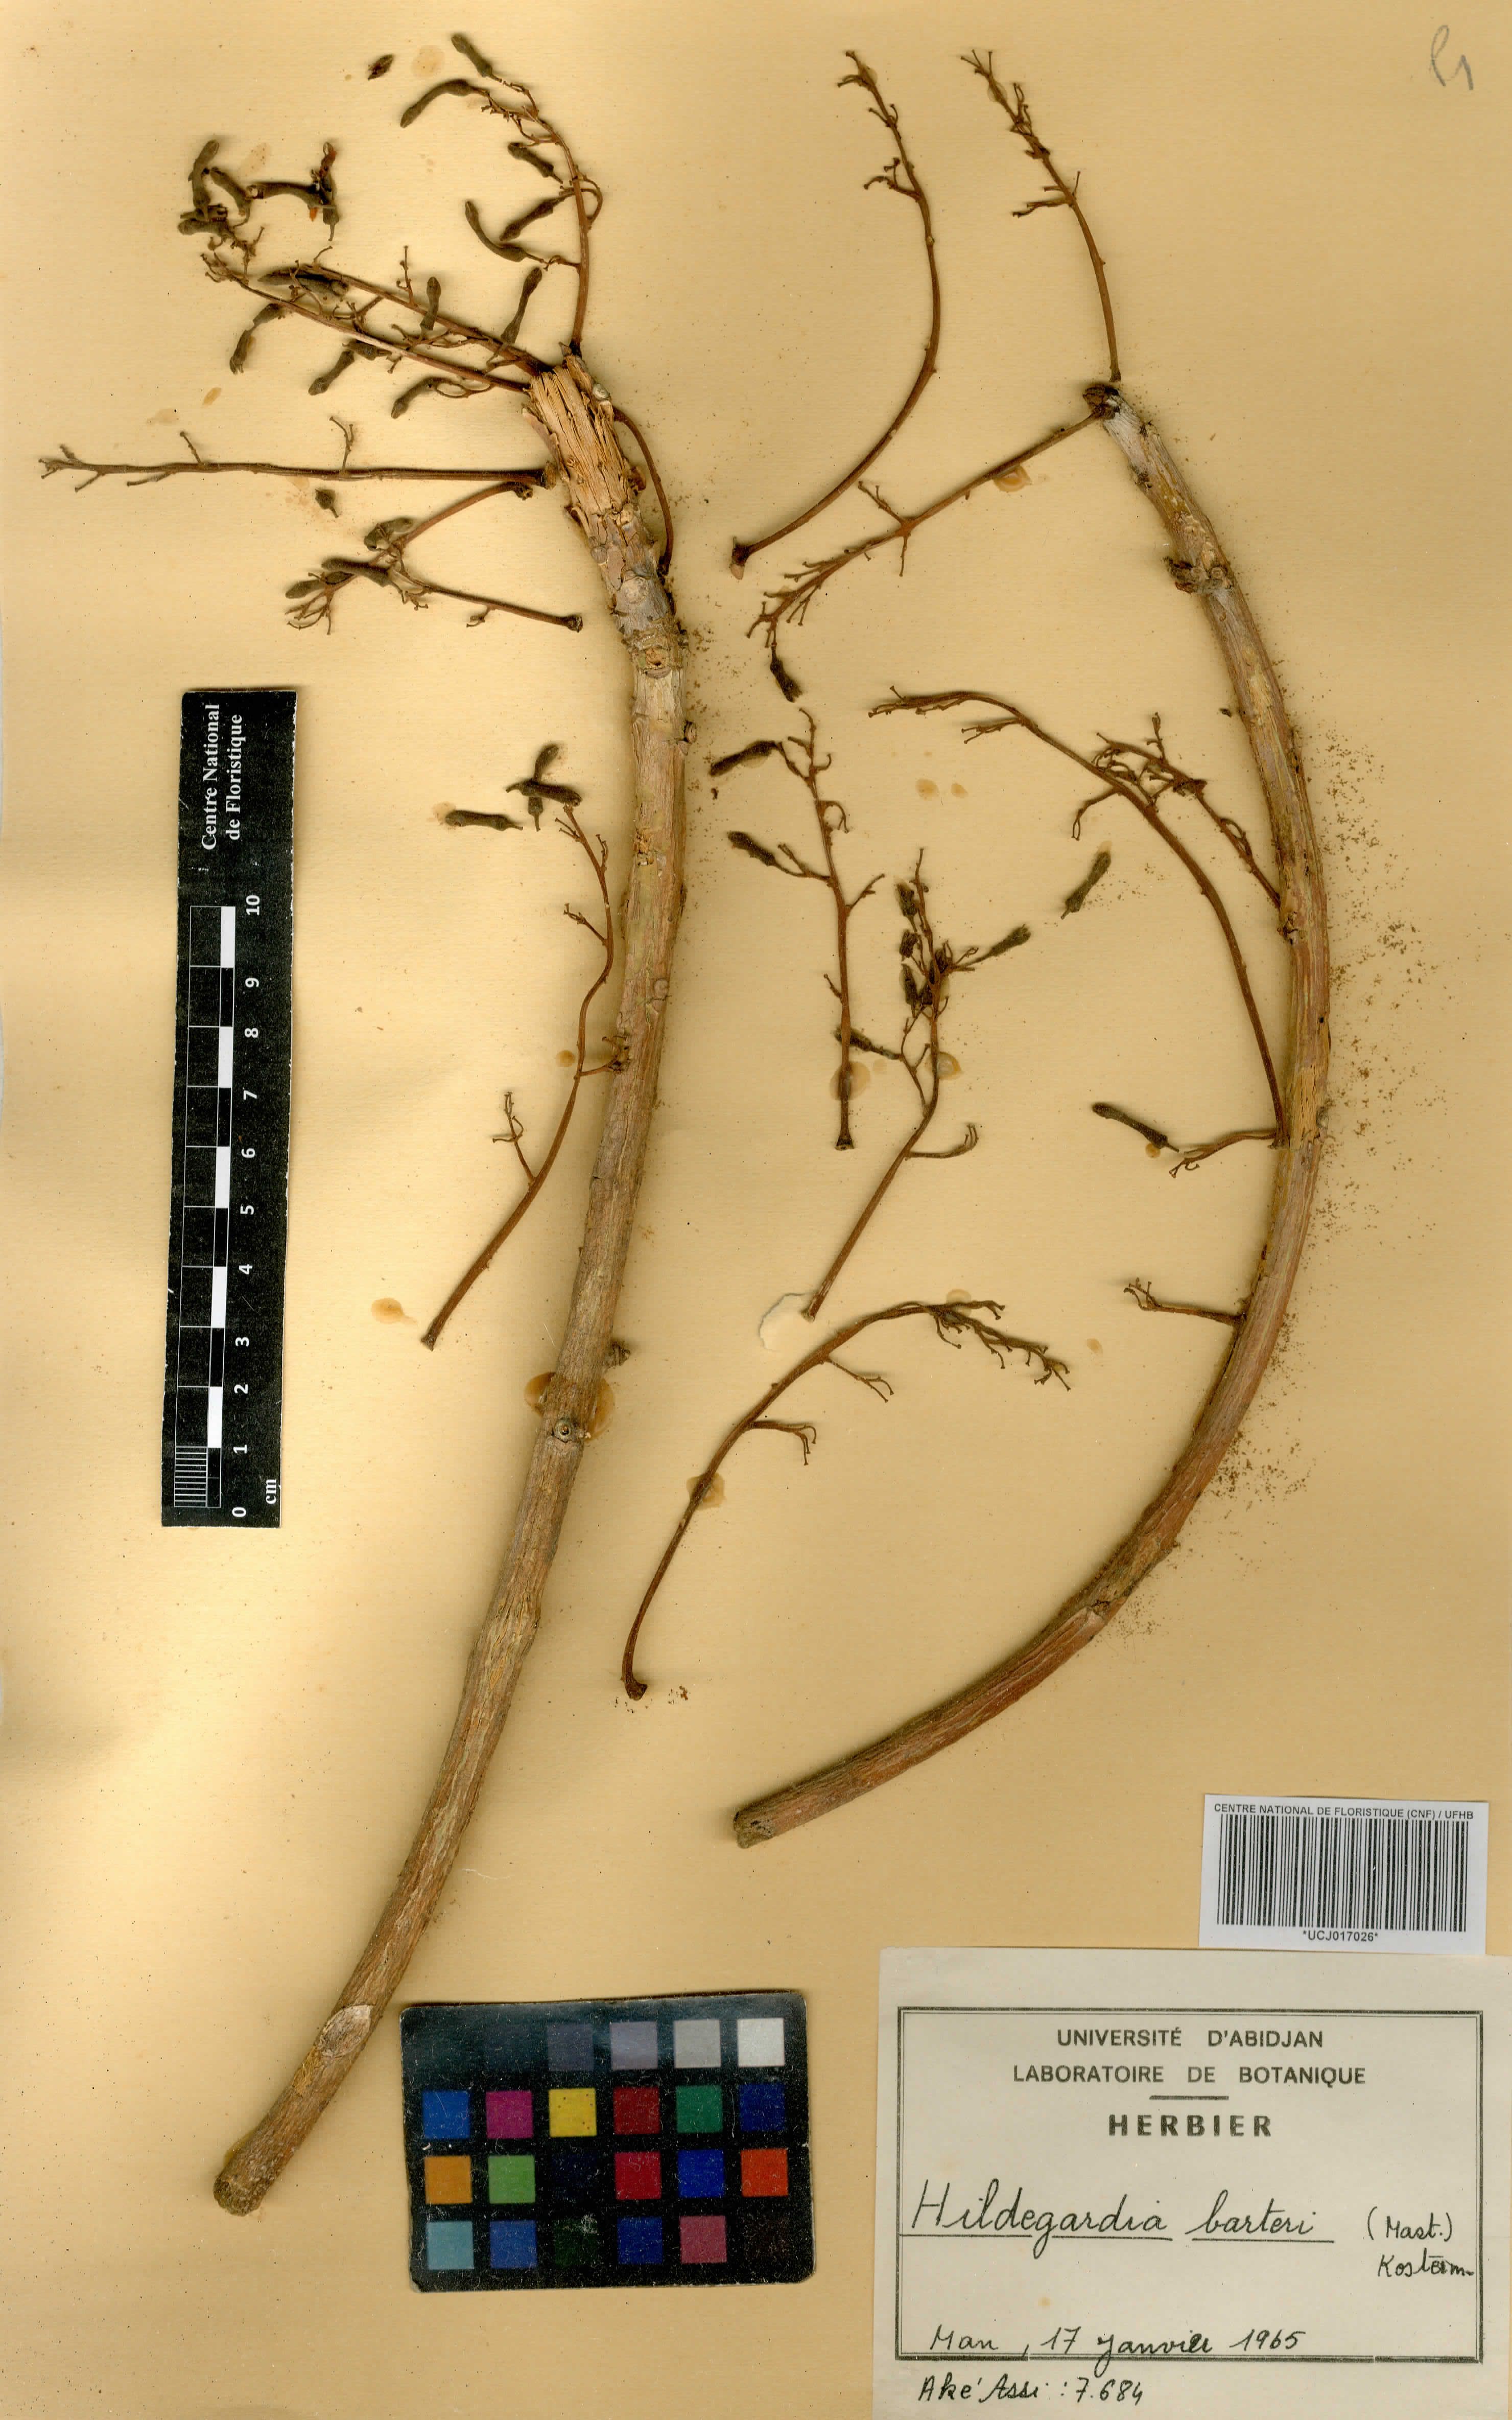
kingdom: Plantae
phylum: Tracheophyta
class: Magnoliopsida
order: Malvales
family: Malvaceae
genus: Hildegardia
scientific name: Hildegardia barteri
